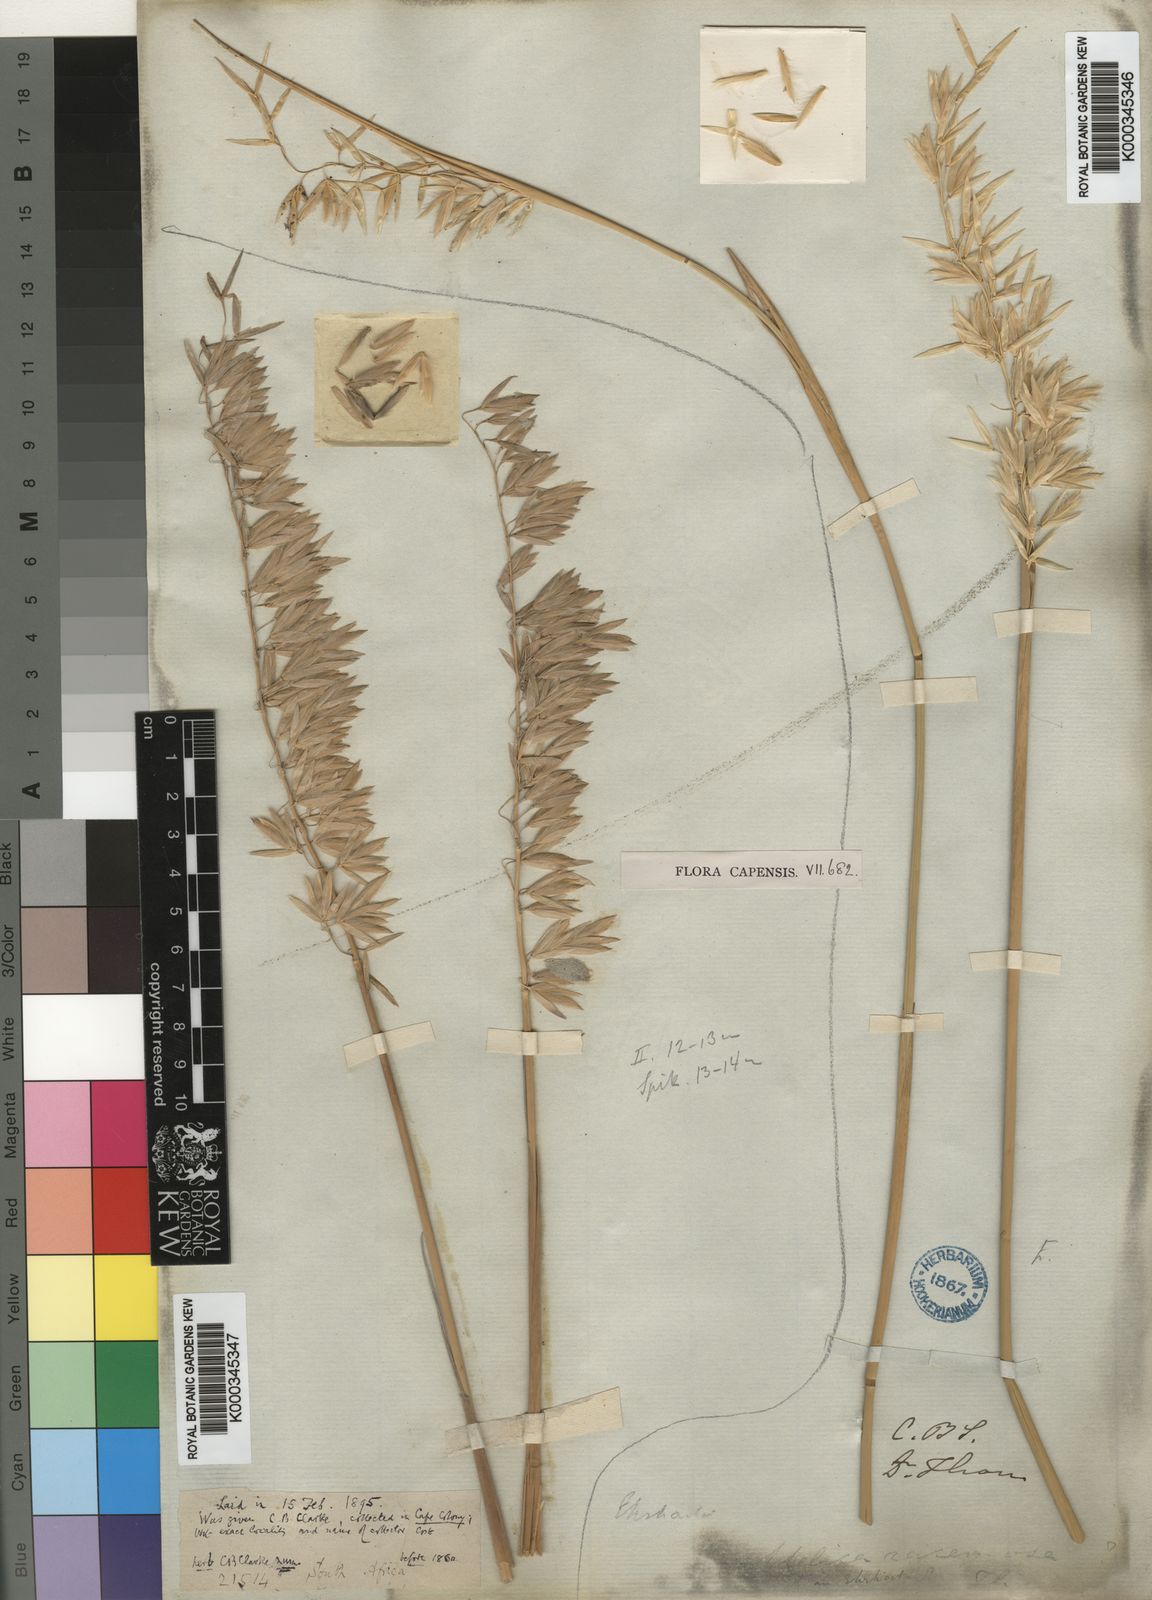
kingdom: Plantae
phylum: Tracheophyta
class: Liliopsida
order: Poales
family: Poaceae
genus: Ehrharta
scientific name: Ehrharta villosa
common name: Pyp grass
